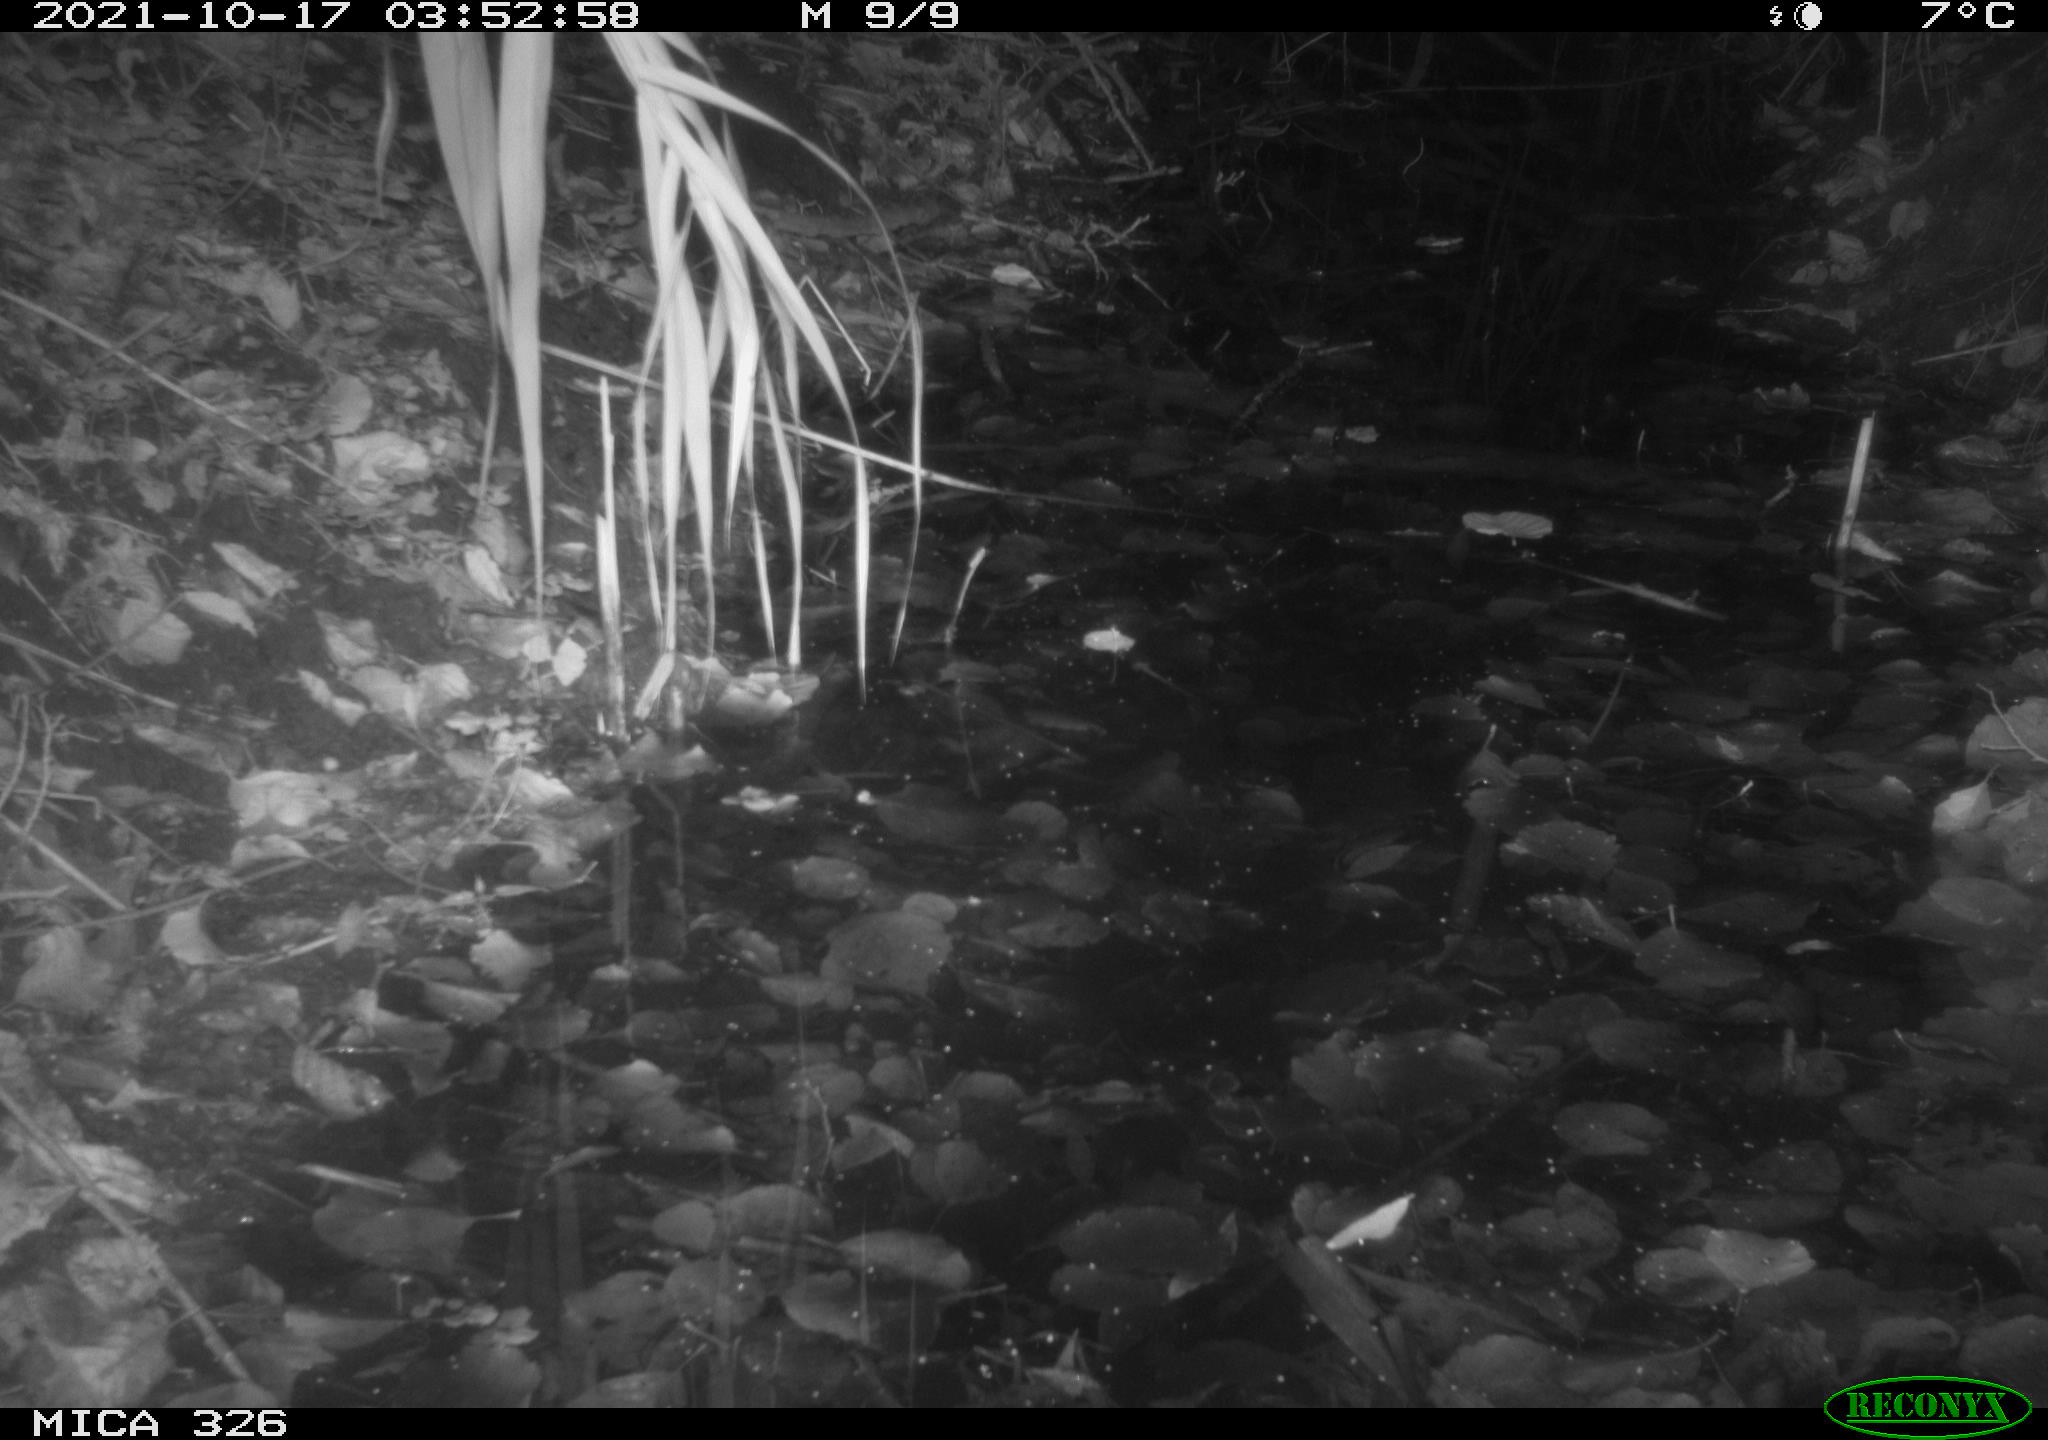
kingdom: Animalia
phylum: Chordata
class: Mammalia
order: Rodentia
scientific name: Rodentia
